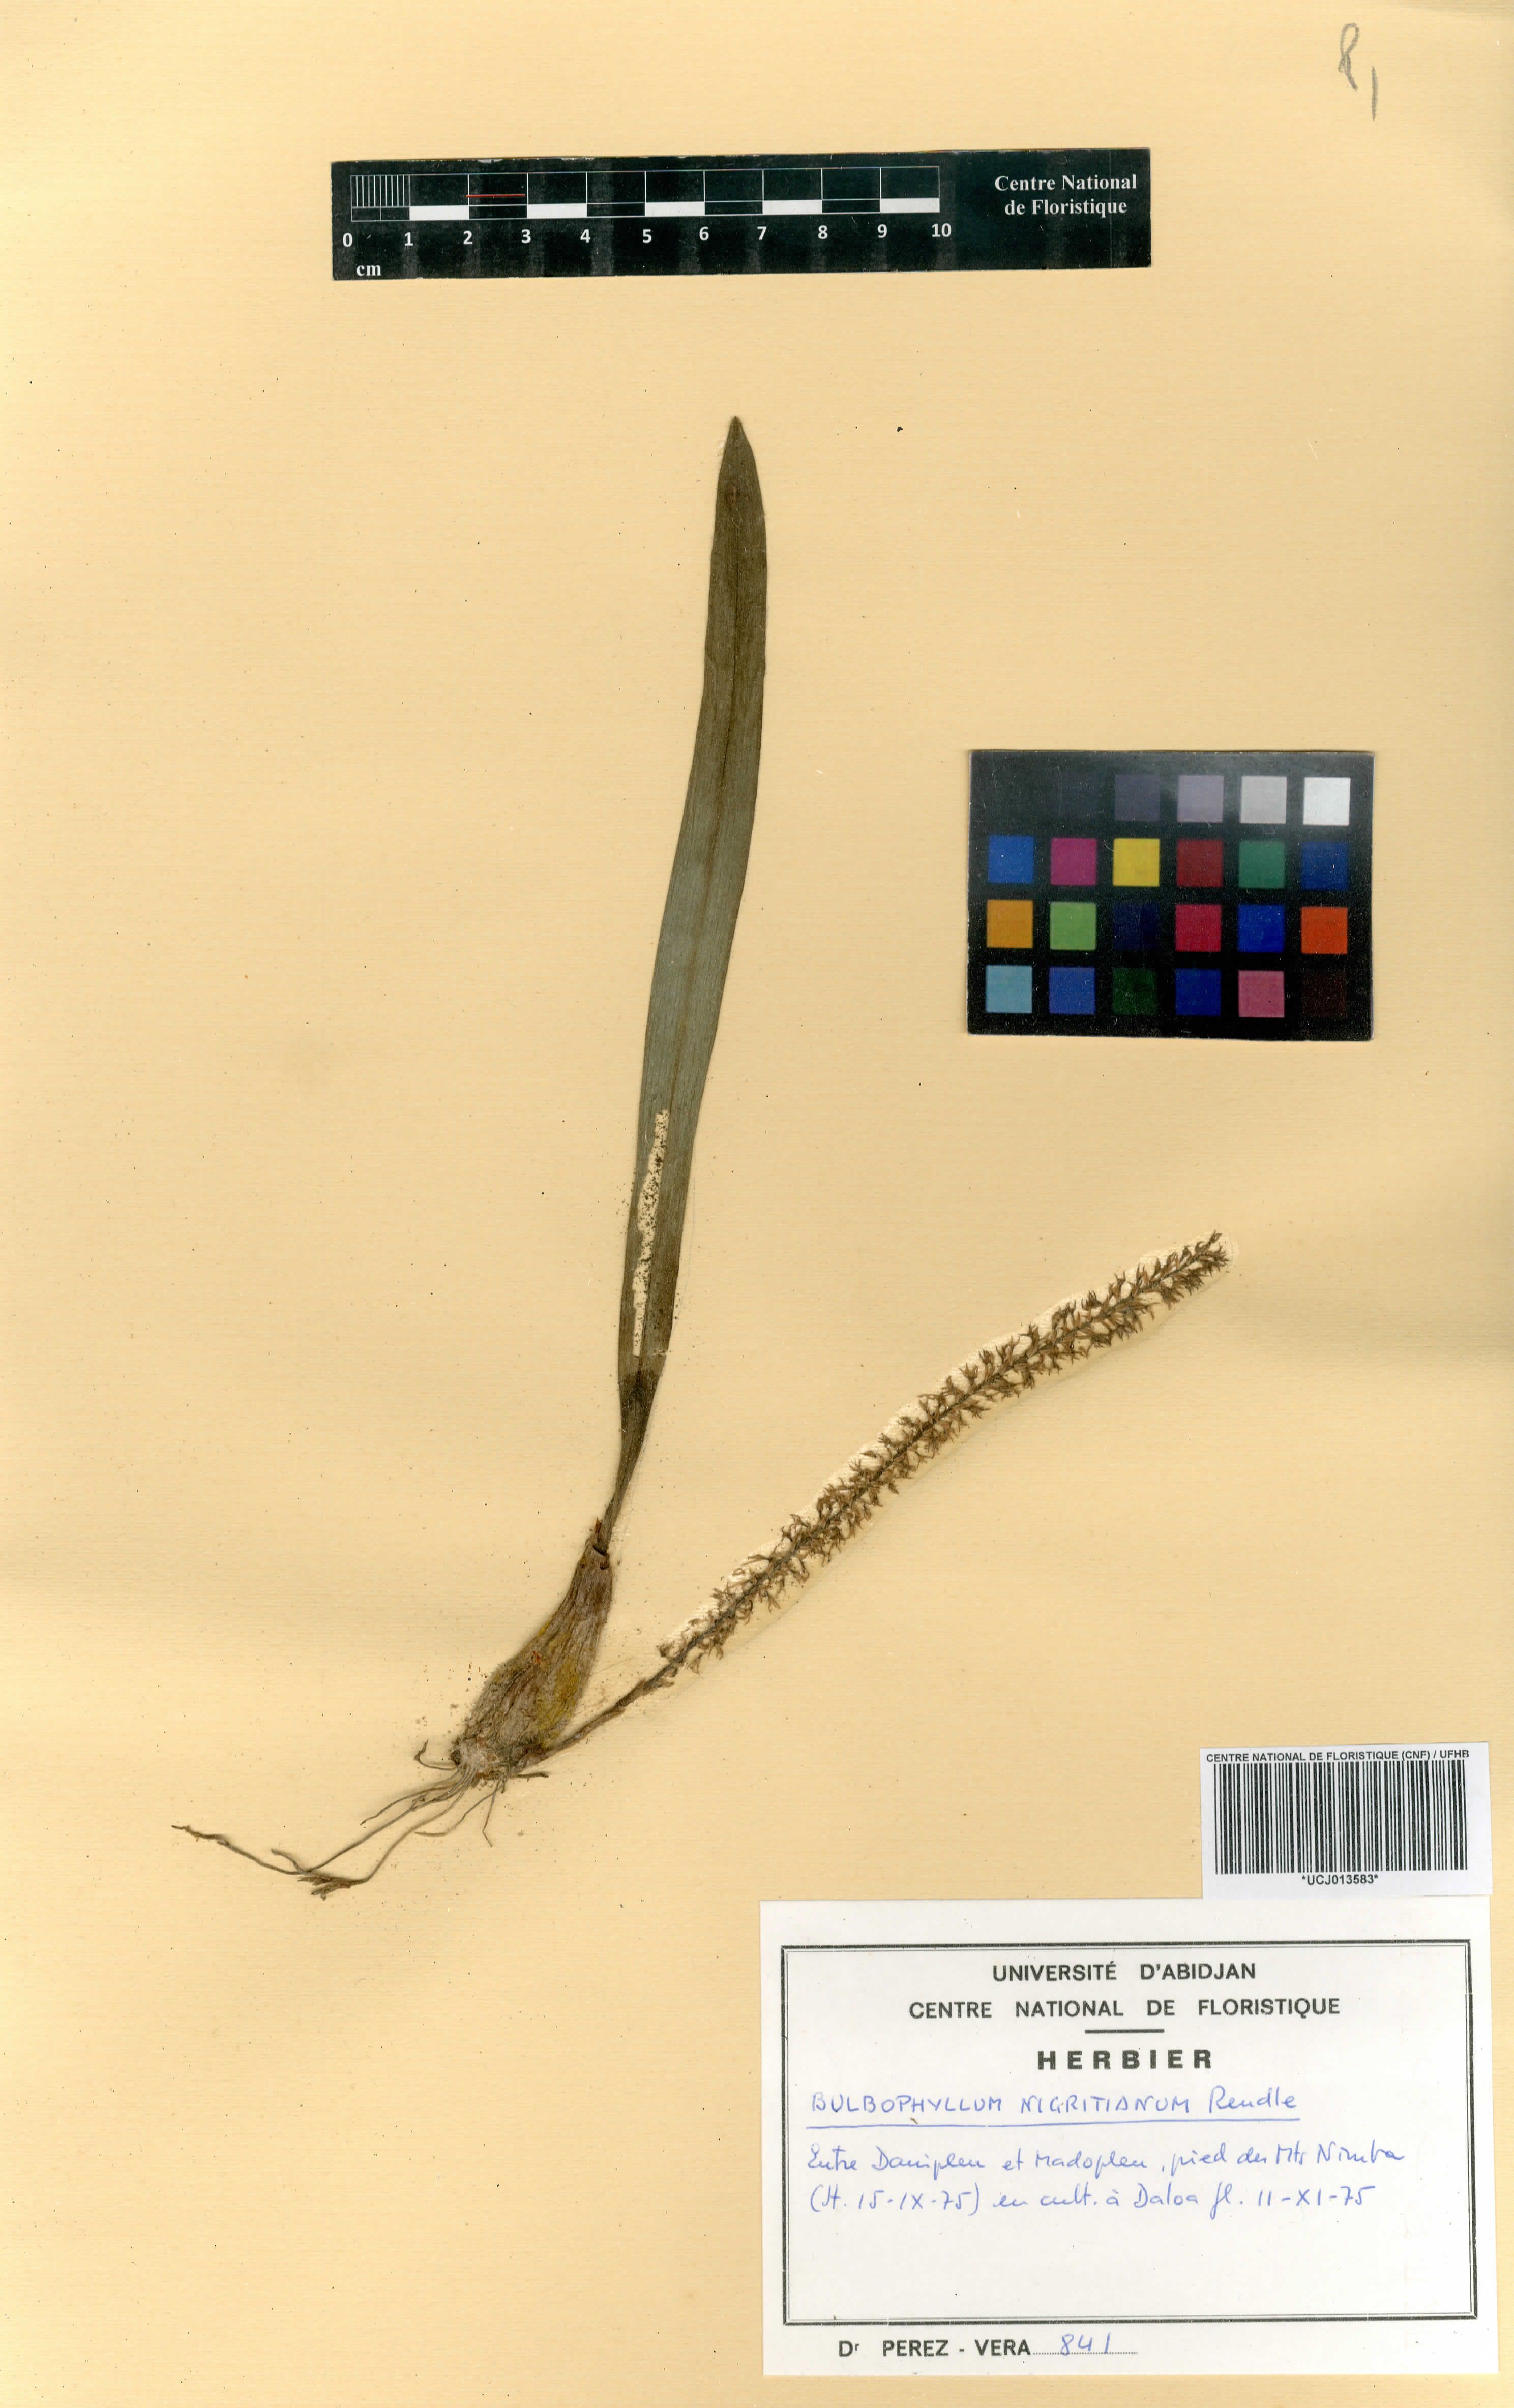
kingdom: Plantae
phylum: Tracheophyta
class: Liliopsida
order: Asparagales
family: Orchidaceae
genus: Bulbophyllum
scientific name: Bulbophyllum nigritianum
